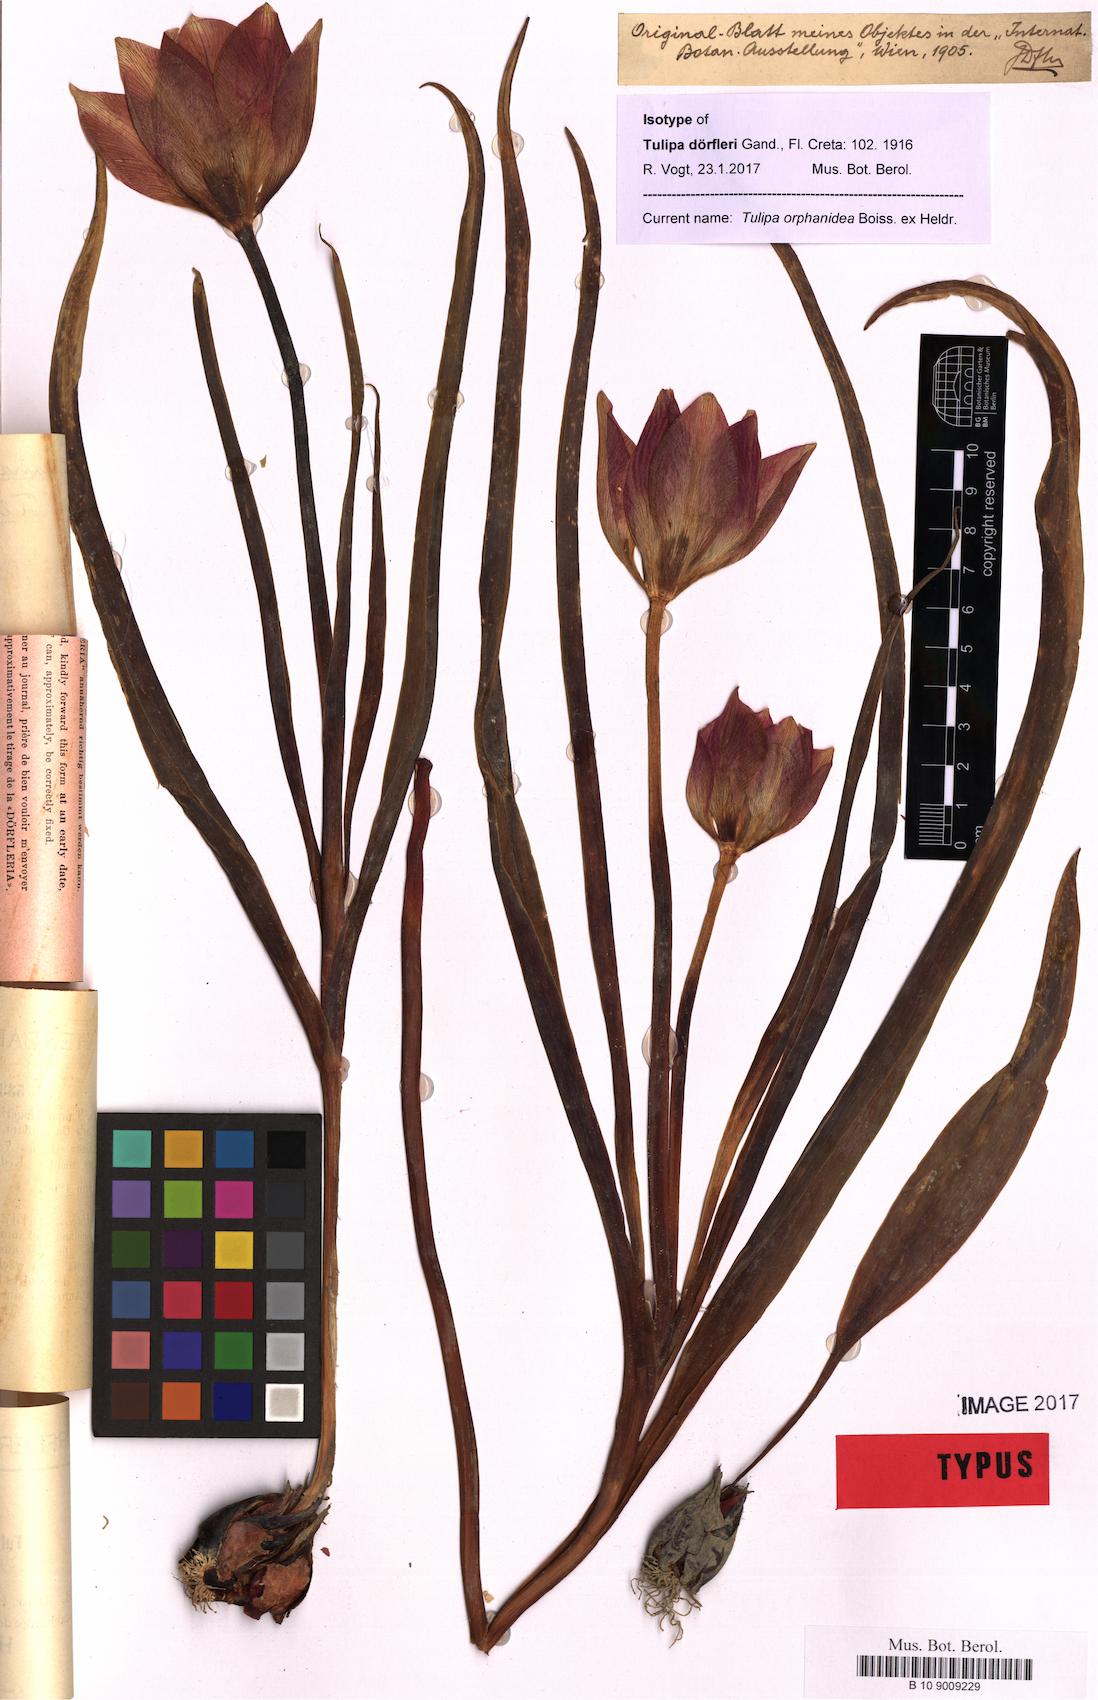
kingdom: Plantae
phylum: Tracheophyta
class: Liliopsida
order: Liliales
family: Liliaceae
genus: Tulipa
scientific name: Tulipa orphanidea
